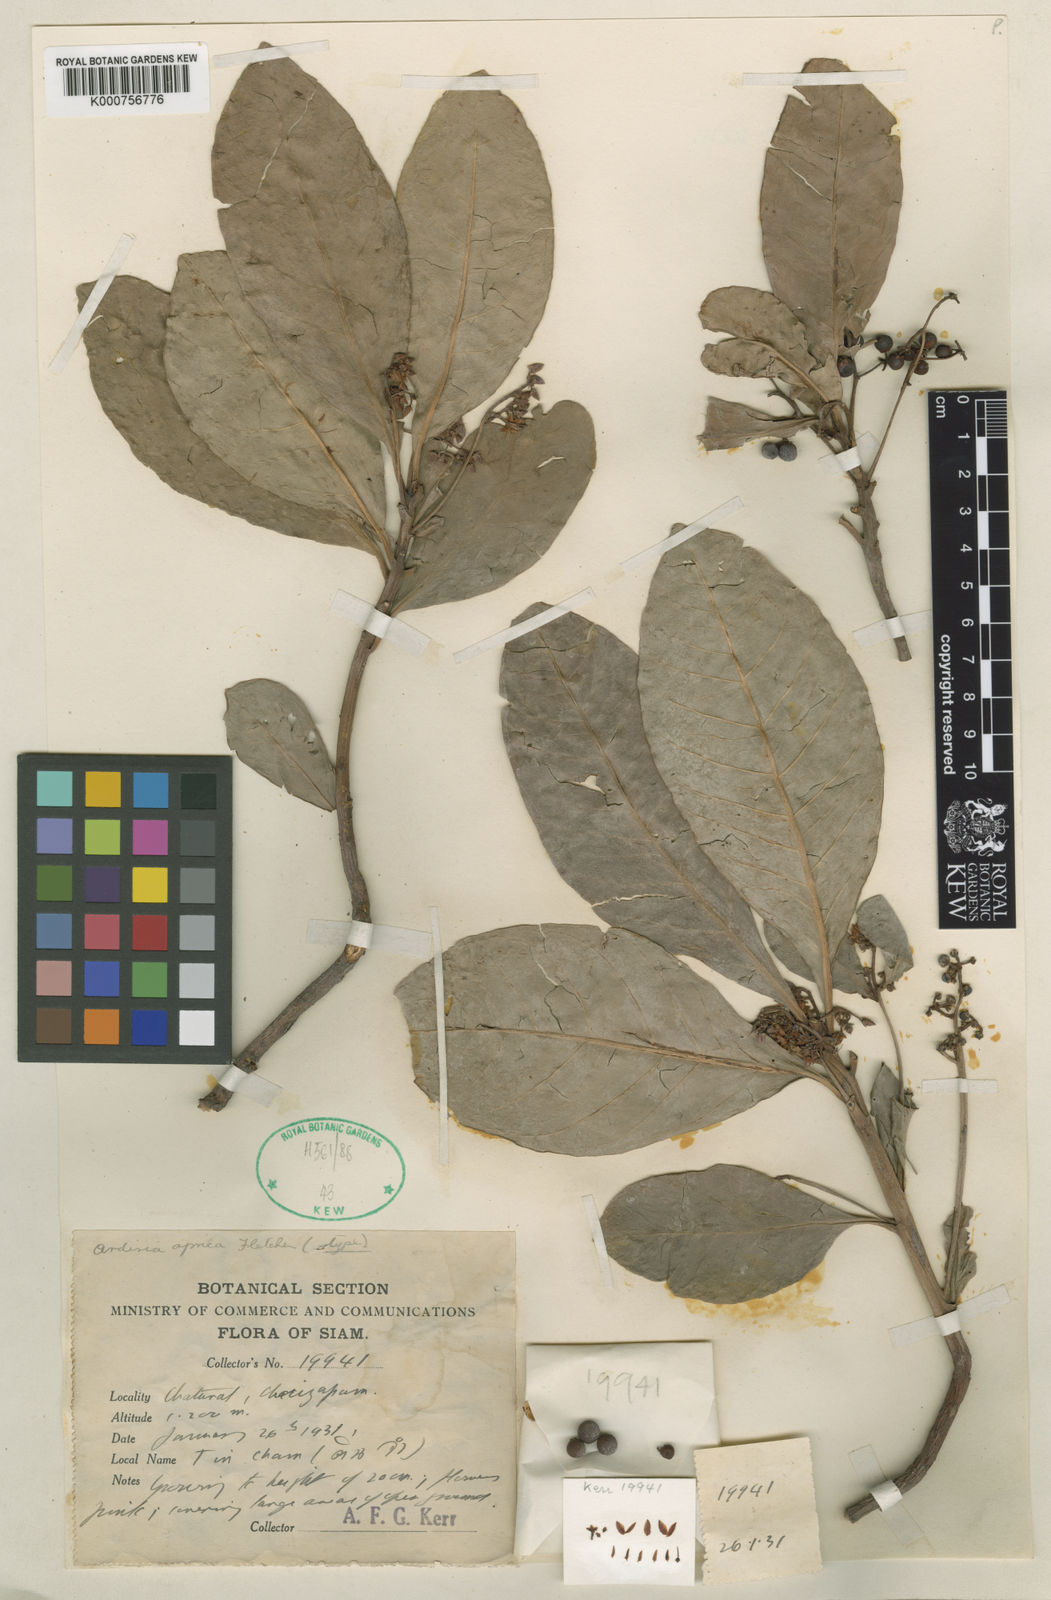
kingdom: Plantae
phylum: Tracheophyta
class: Magnoliopsida
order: Ericales
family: Primulaceae
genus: Ardisia
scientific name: Ardisia aprica
